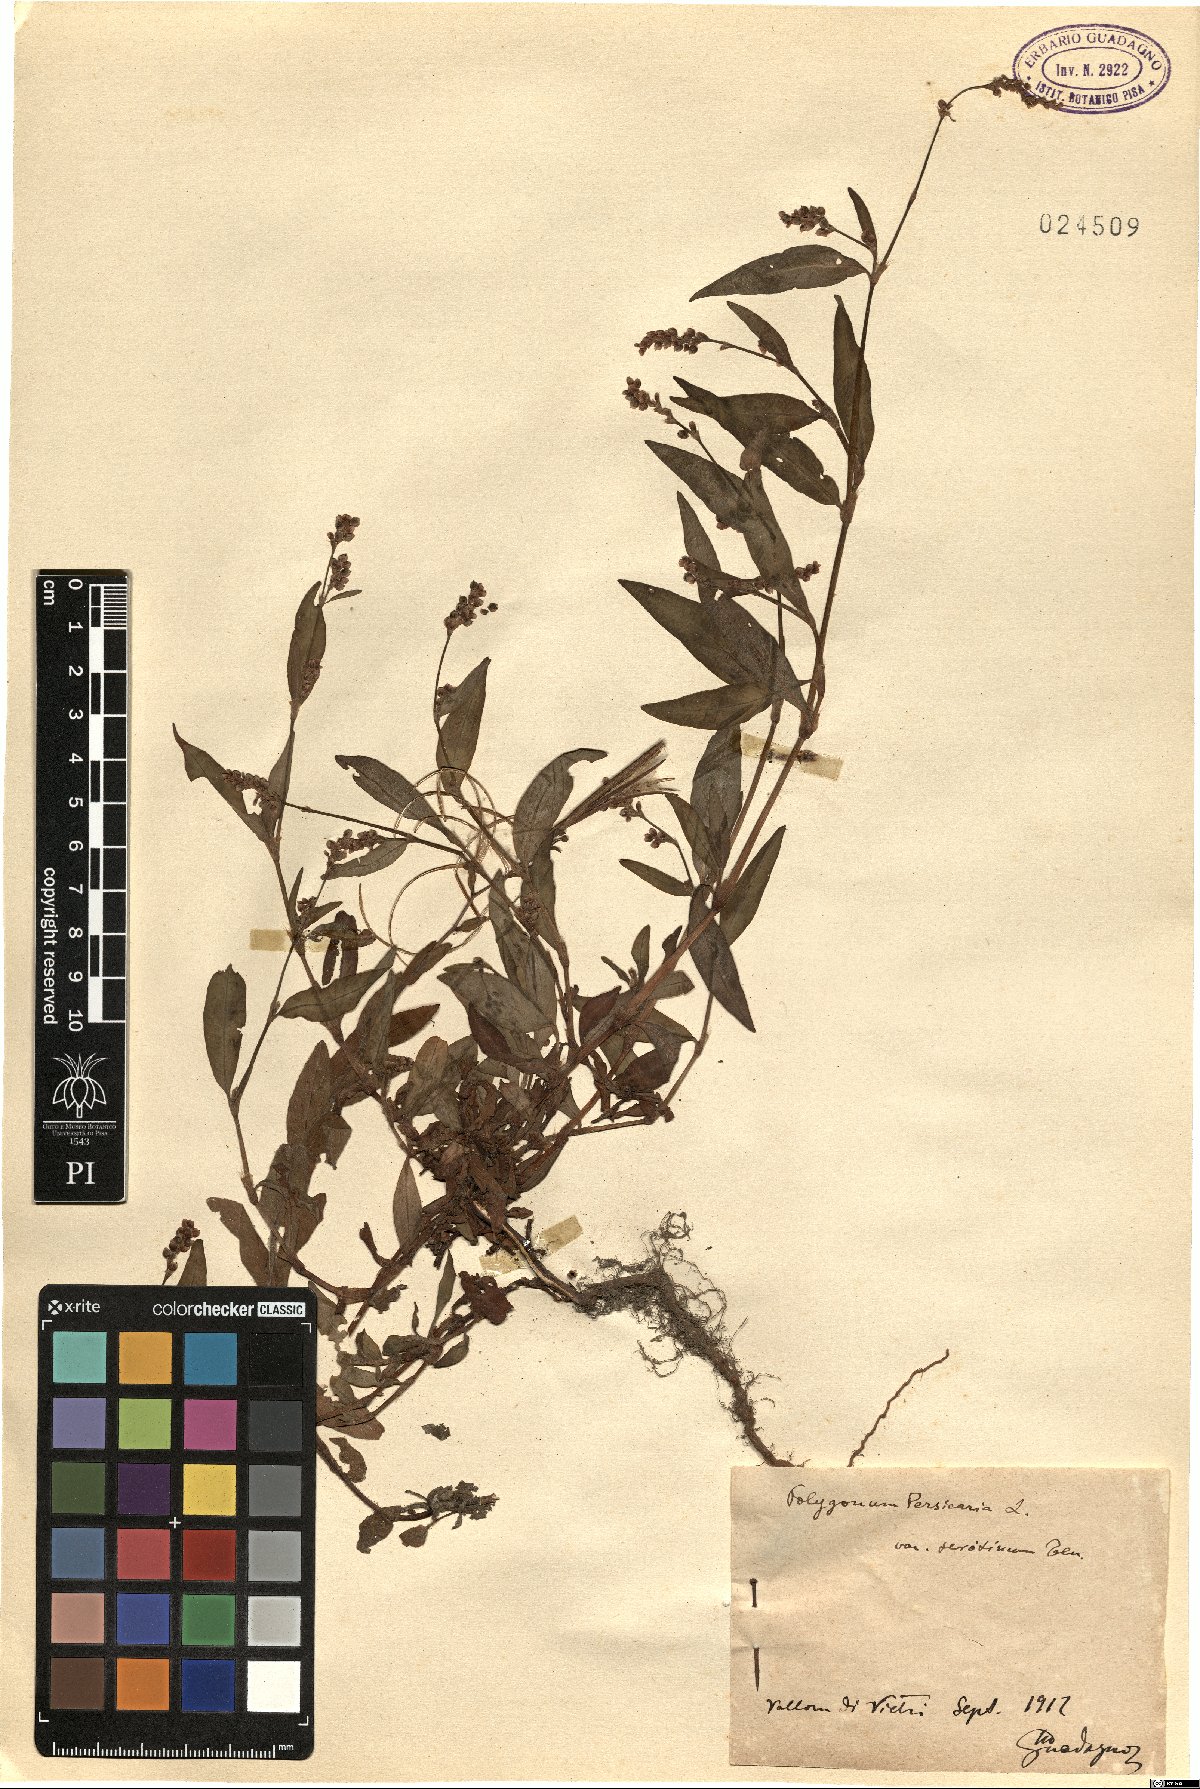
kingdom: Plantae
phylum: Tracheophyta
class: Magnoliopsida
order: Caryophyllales
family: Polygonaceae
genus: Polygonum
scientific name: Polygonum persicaria
